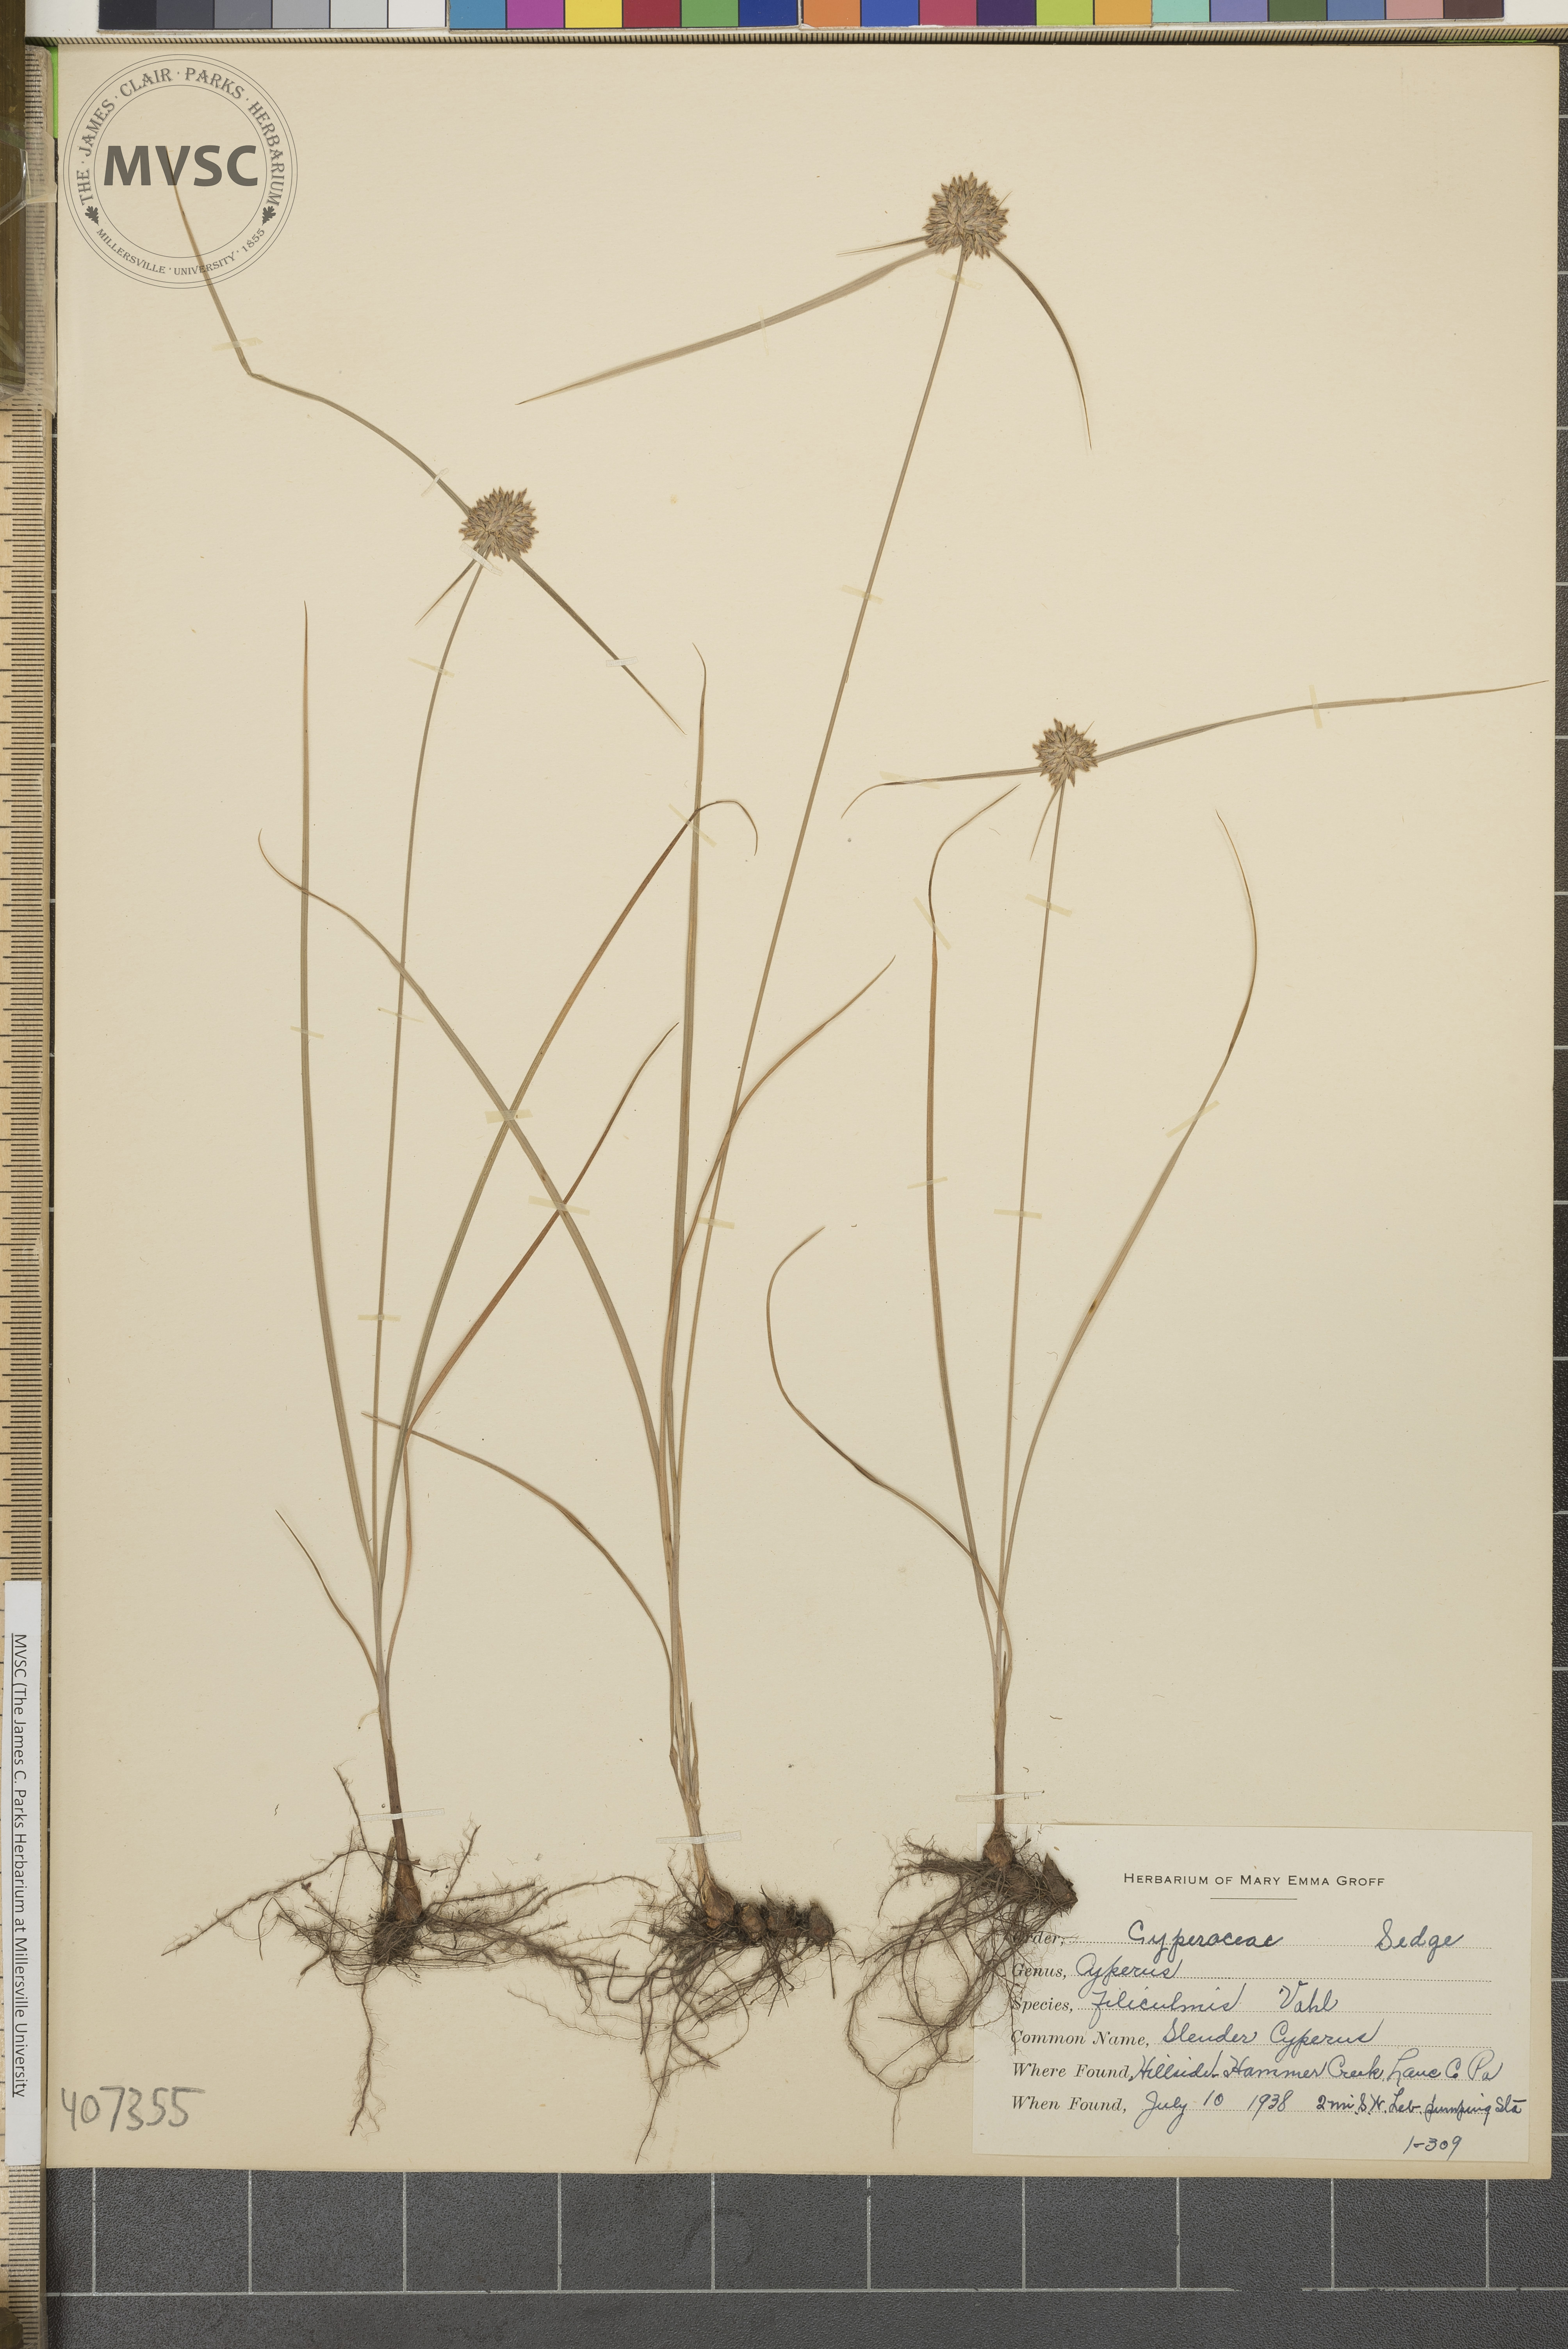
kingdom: Plantae
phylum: Tracheophyta
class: Liliopsida
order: Poales
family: Cyperaceae
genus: Cyperus
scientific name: Cyperus filiculmis
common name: Slender Cyperus
